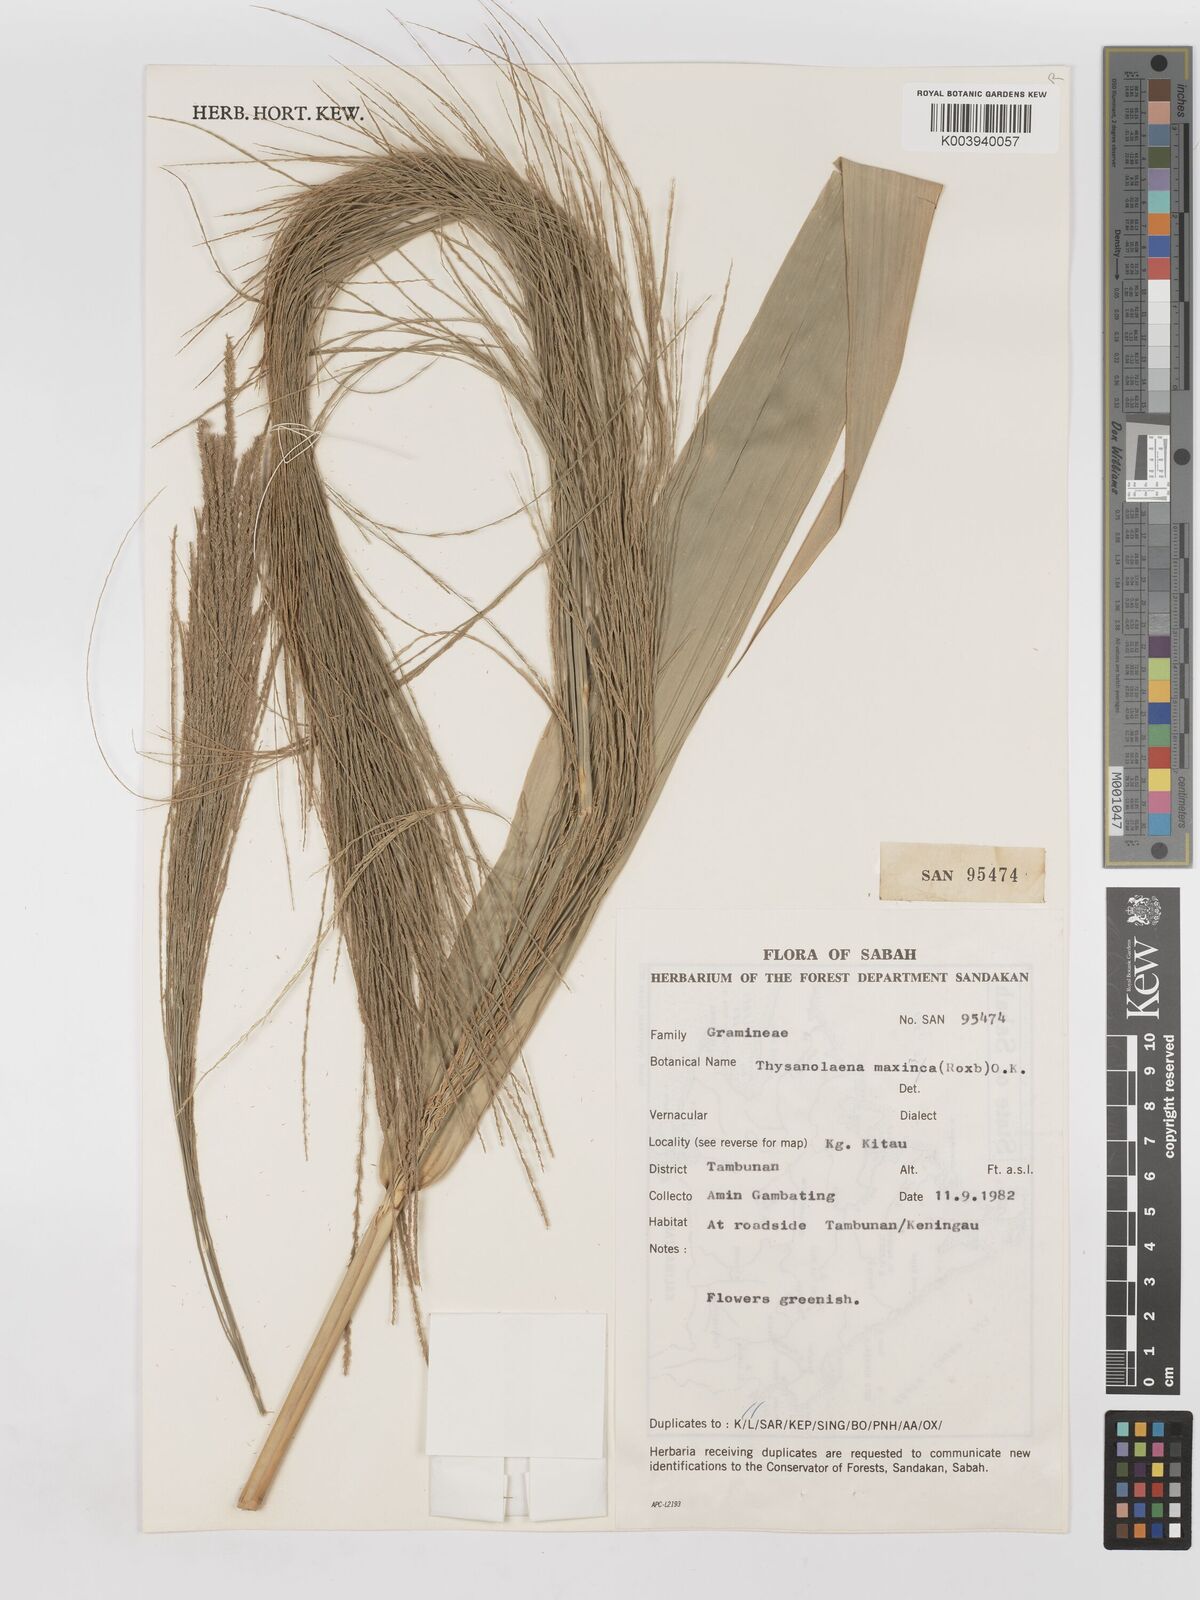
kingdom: Plantae
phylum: Tracheophyta
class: Liliopsida
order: Poales
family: Poaceae
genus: Thysanolaena
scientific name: Thysanolaena latifolia
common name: Tiger grass
